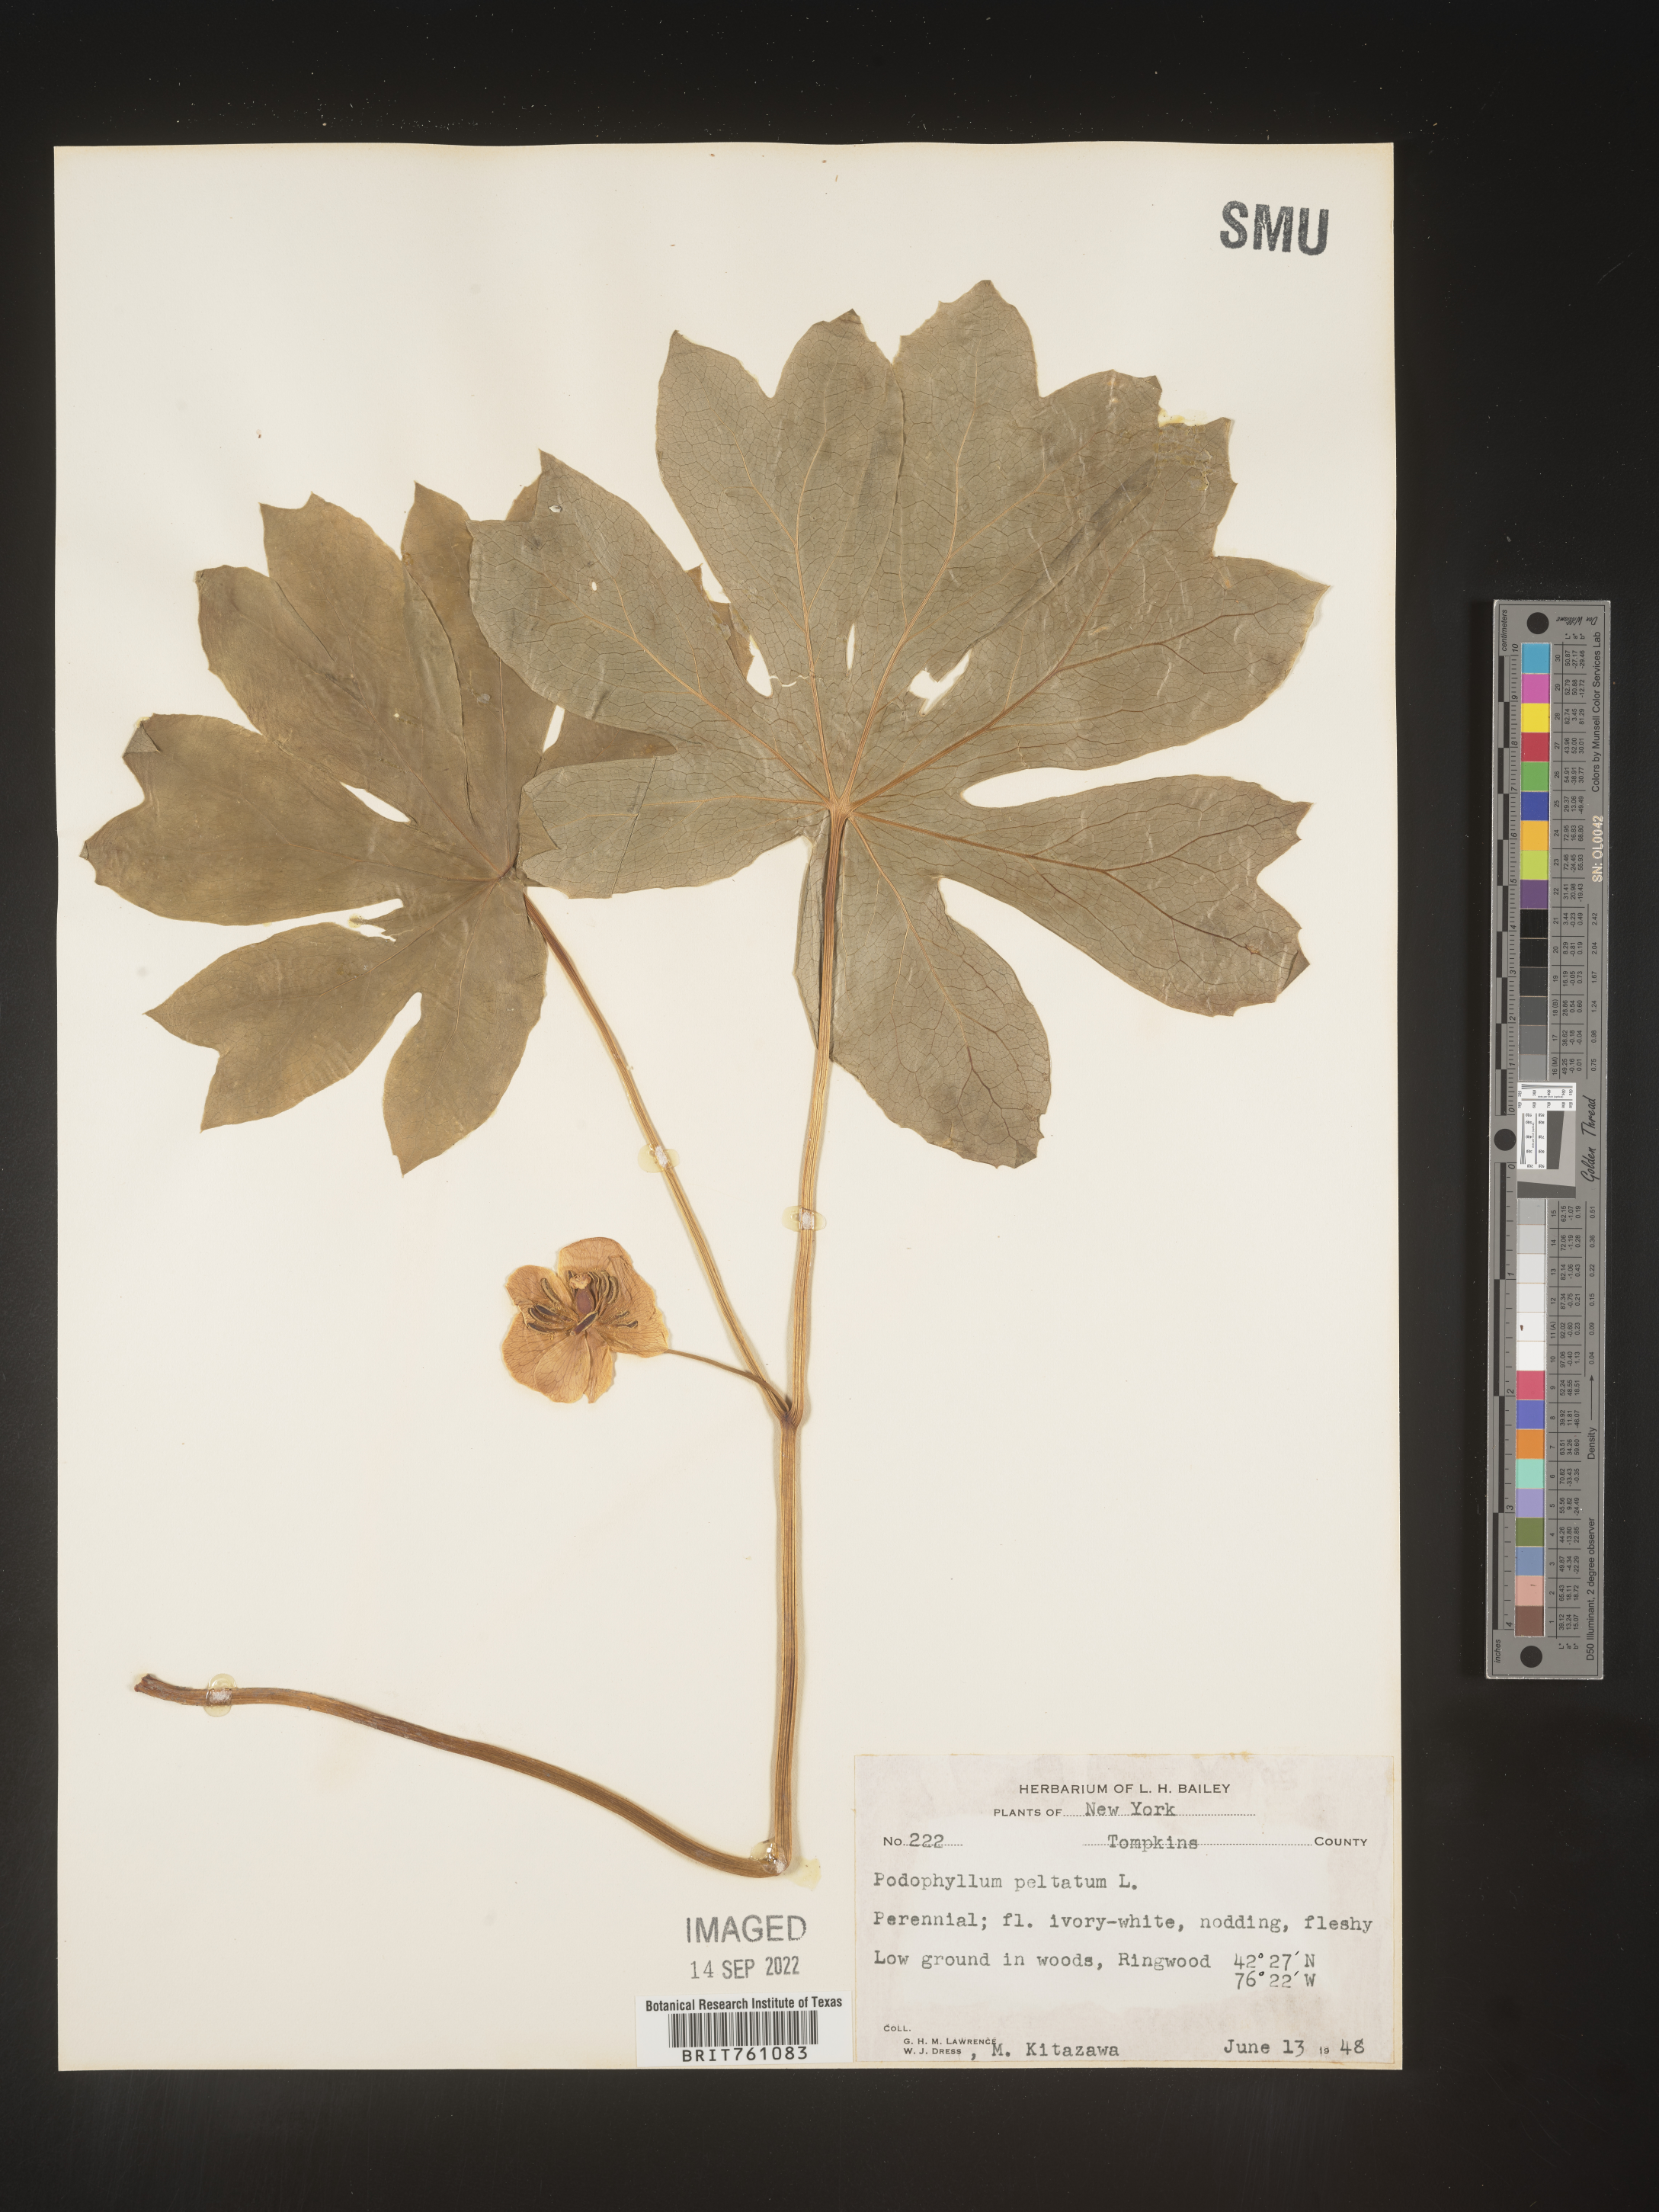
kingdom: Plantae
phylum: Tracheophyta
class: Magnoliopsida
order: Ranunculales
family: Berberidaceae
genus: Podophyllum
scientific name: Podophyllum peltatum
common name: Wild mandrake
